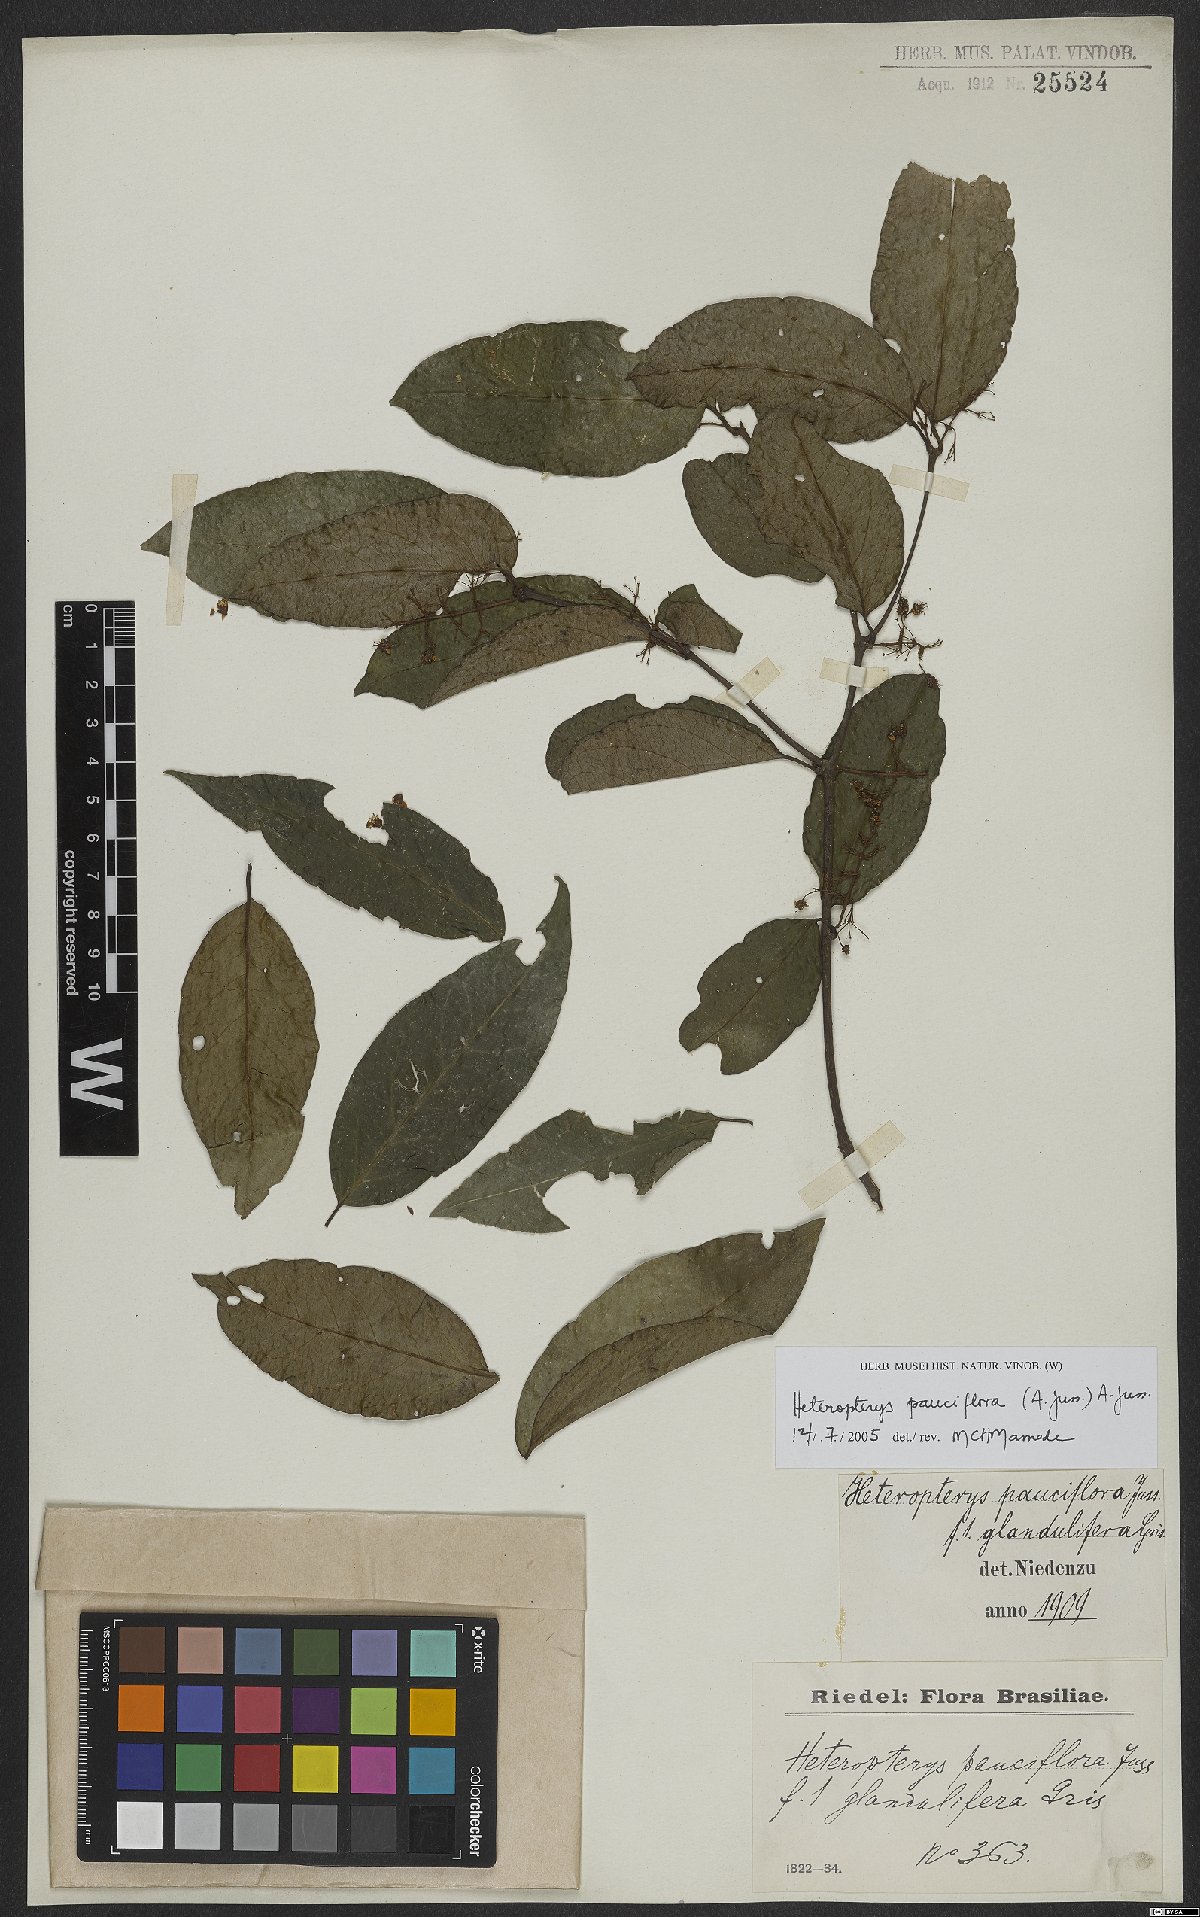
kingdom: Plantae
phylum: Tracheophyta
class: Magnoliopsida
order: Malpighiales
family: Malpighiaceae
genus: Heteropterys
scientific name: Heteropterys pauciflora
